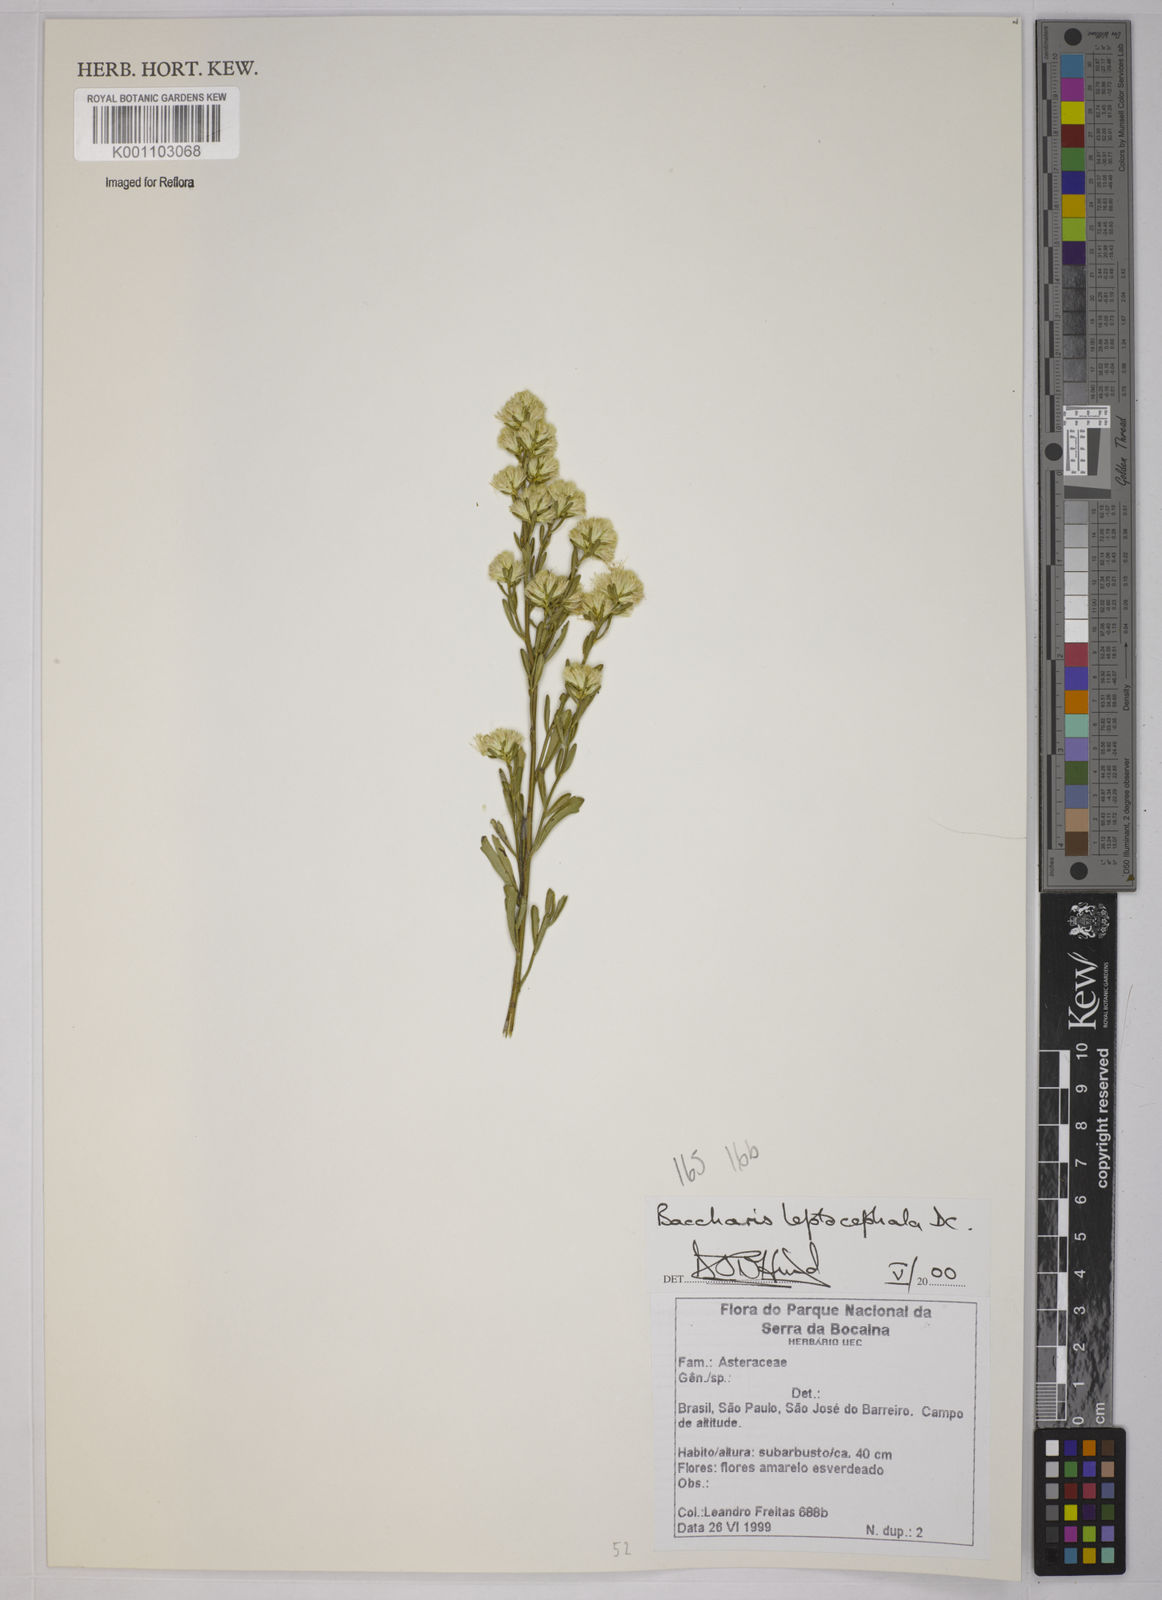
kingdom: Plantae
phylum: Tracheophyta
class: Magnoliopsida
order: Asterales
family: Asteraceae
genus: Baccharis
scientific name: Baccharis leptocephala
